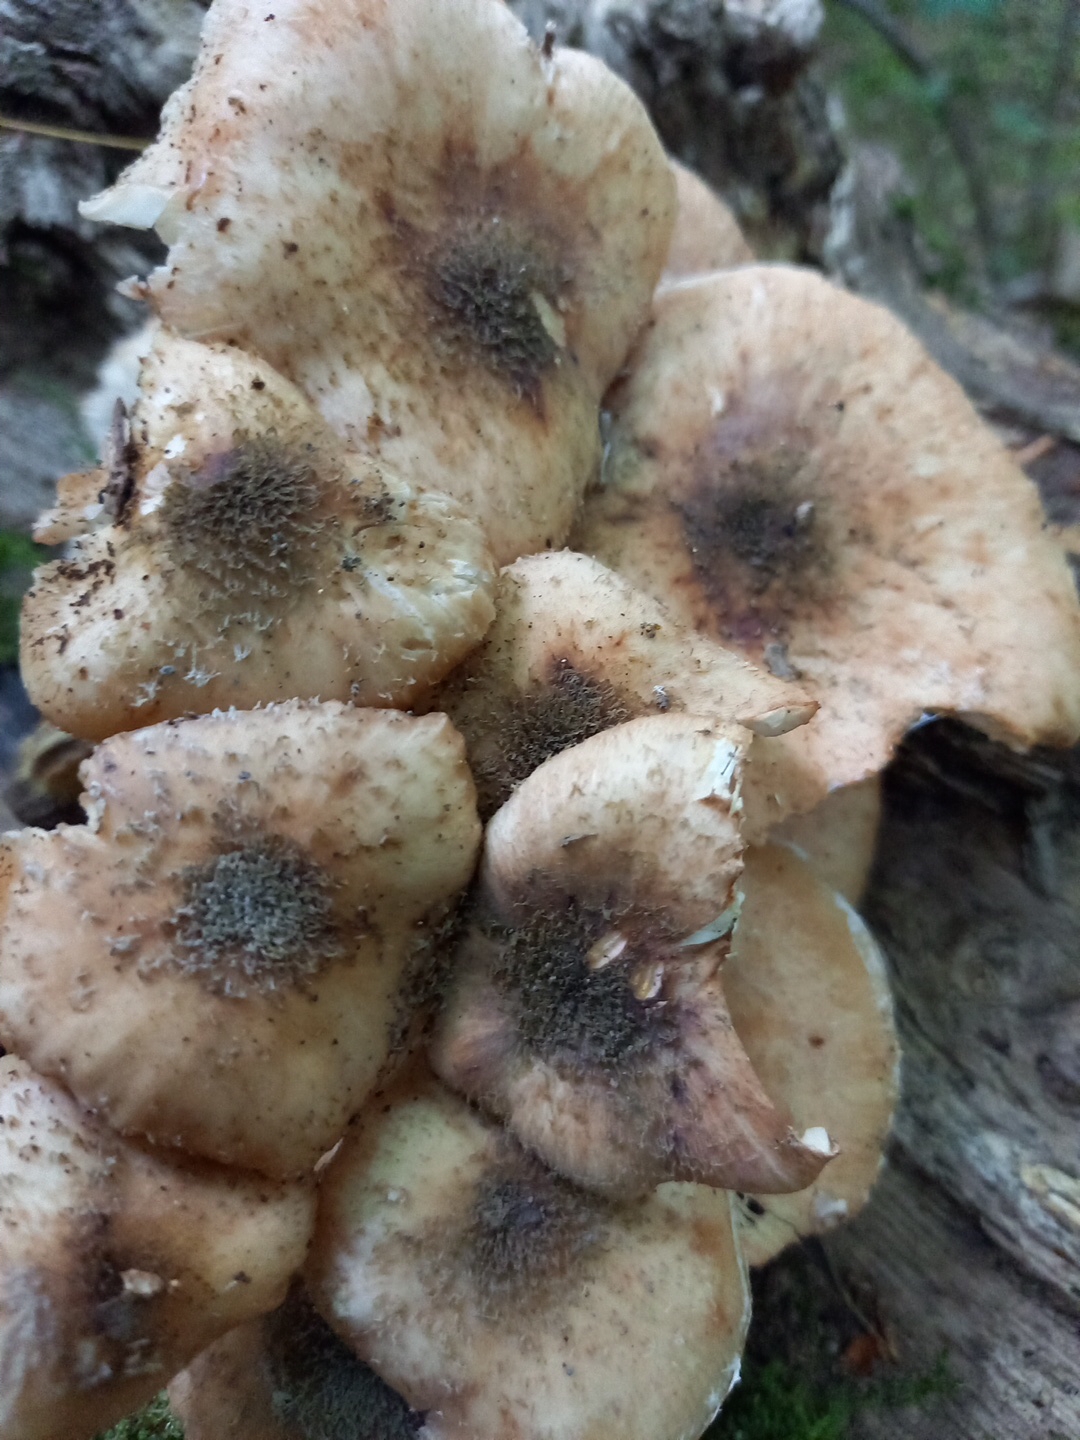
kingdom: Fungi
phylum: Basidiomycota
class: Agaricomycetes
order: Agaricales
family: Physalacriaceae
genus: Armillaria
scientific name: Armillaria
